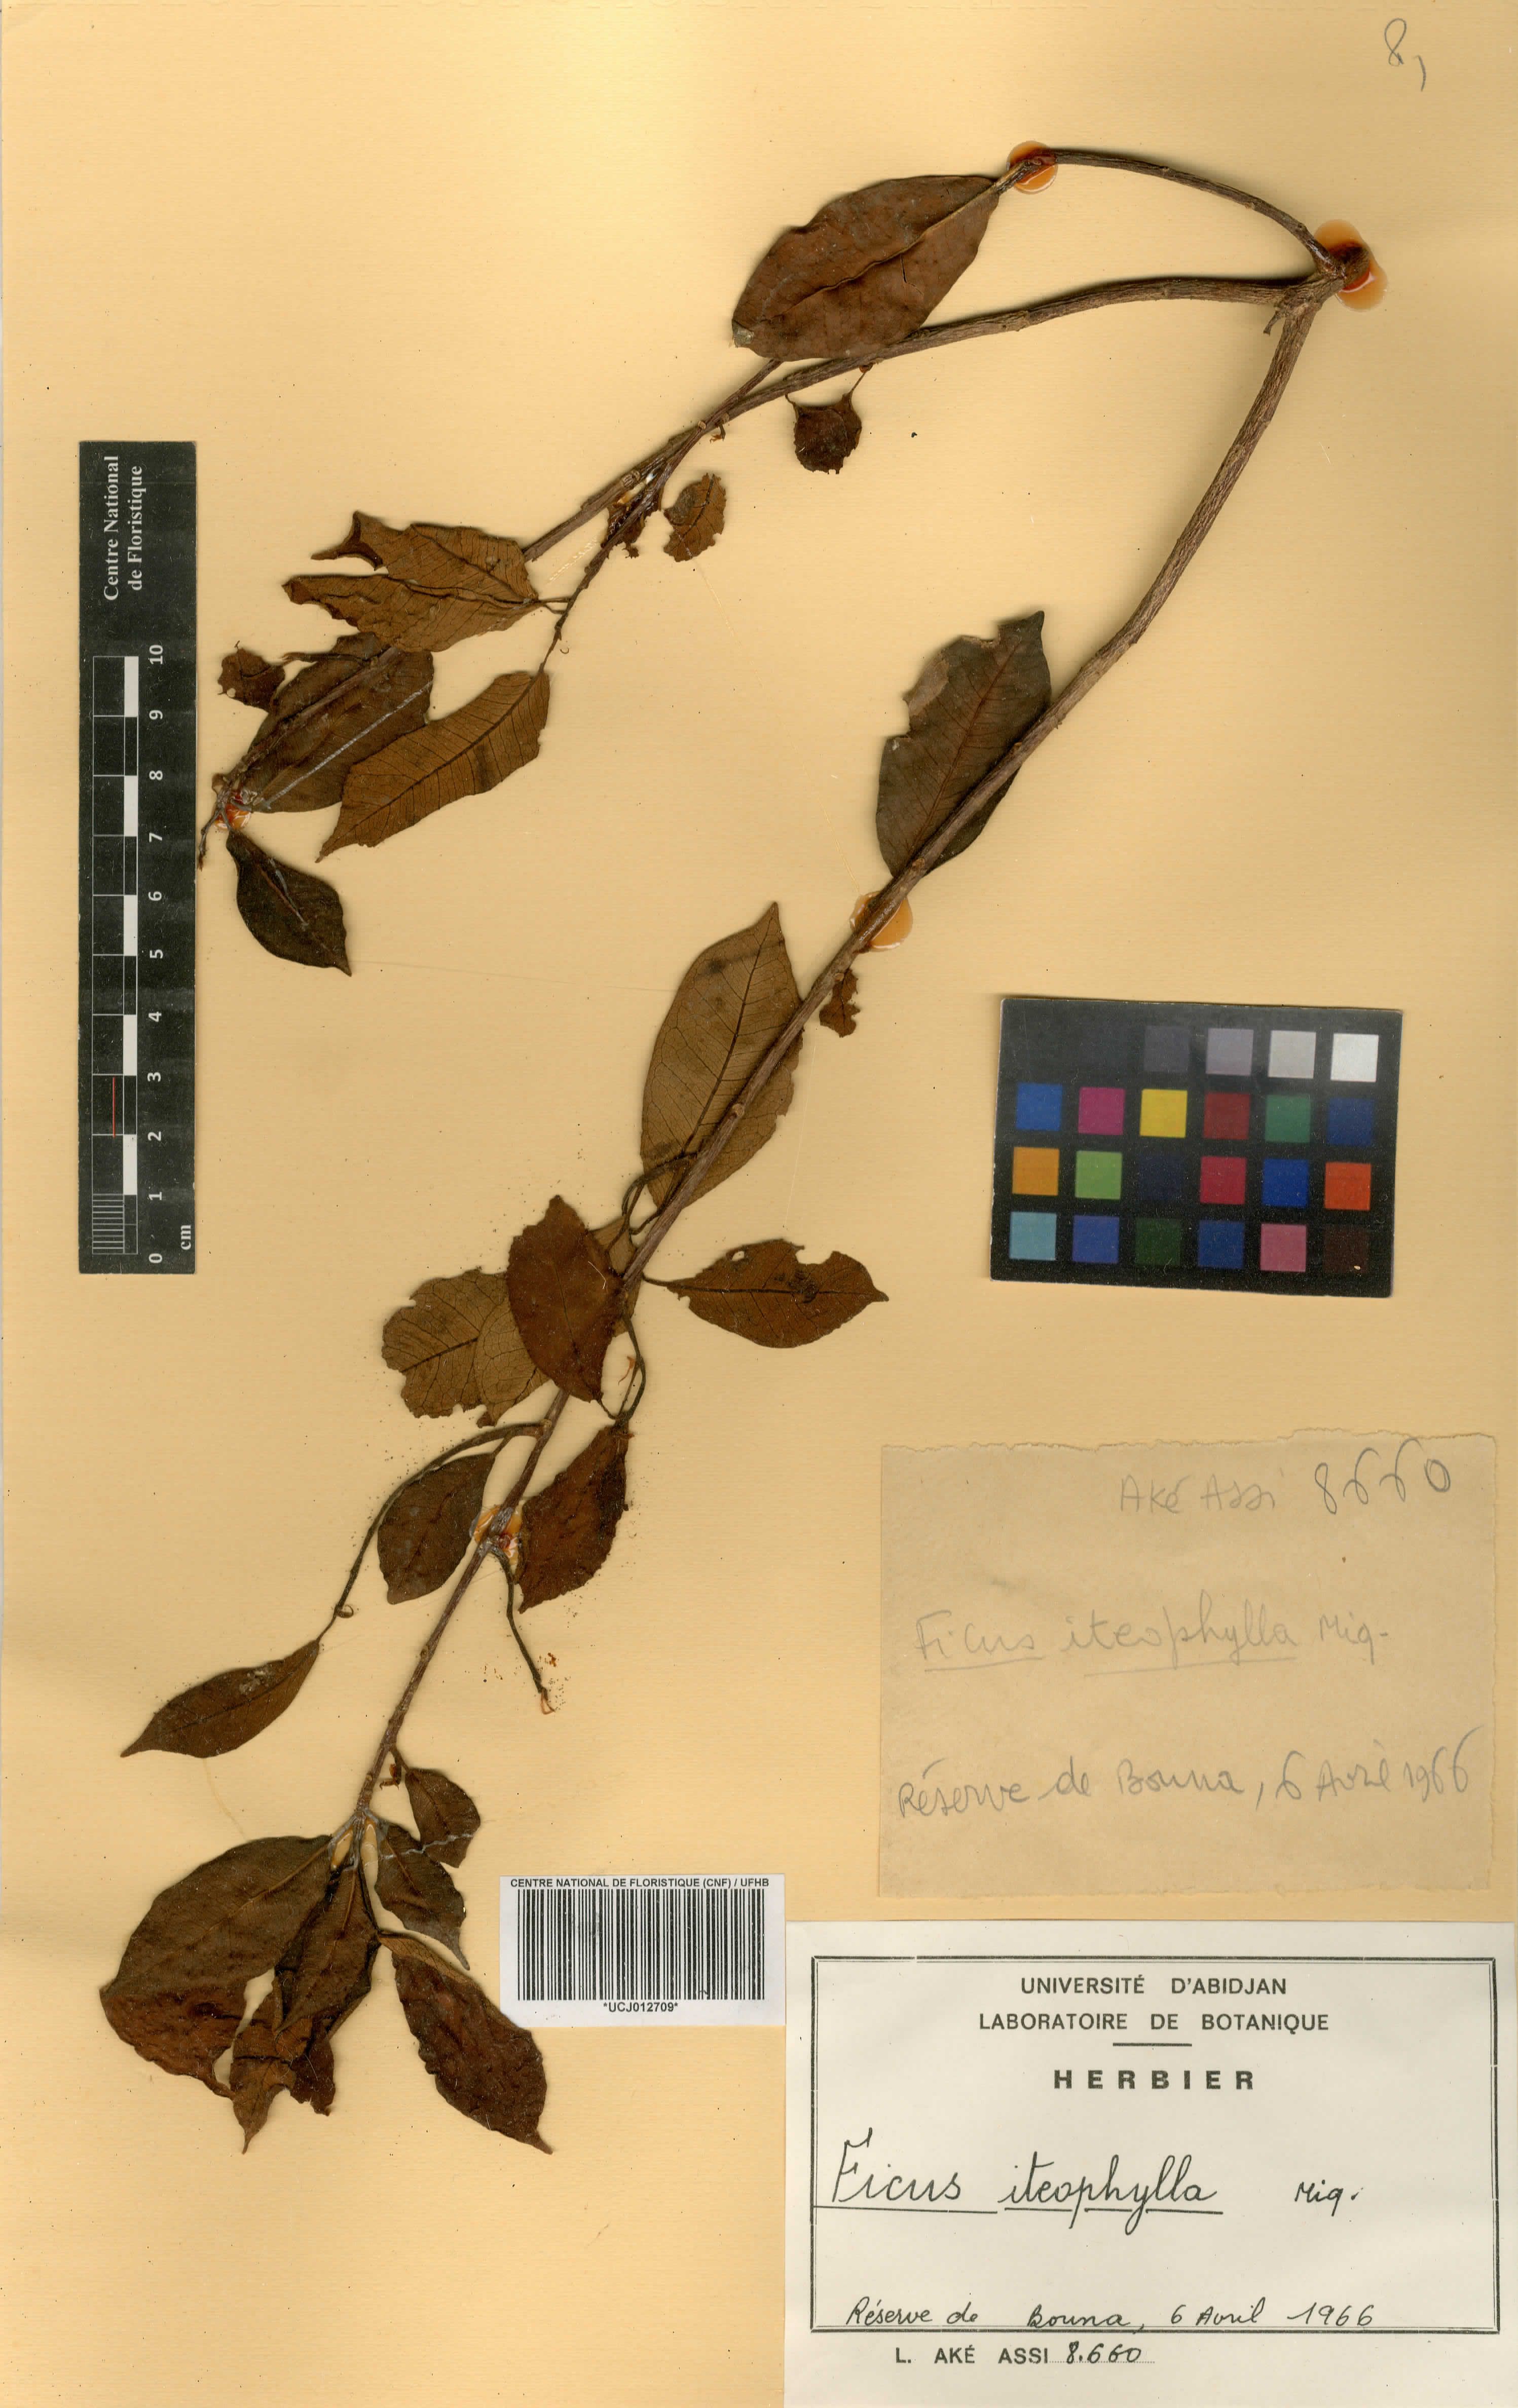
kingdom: Plantae
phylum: Tracheophyta
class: Magnoliopsida
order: Rosales
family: Moraceae
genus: Ficus
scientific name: Ficus thonningii
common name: Fig
